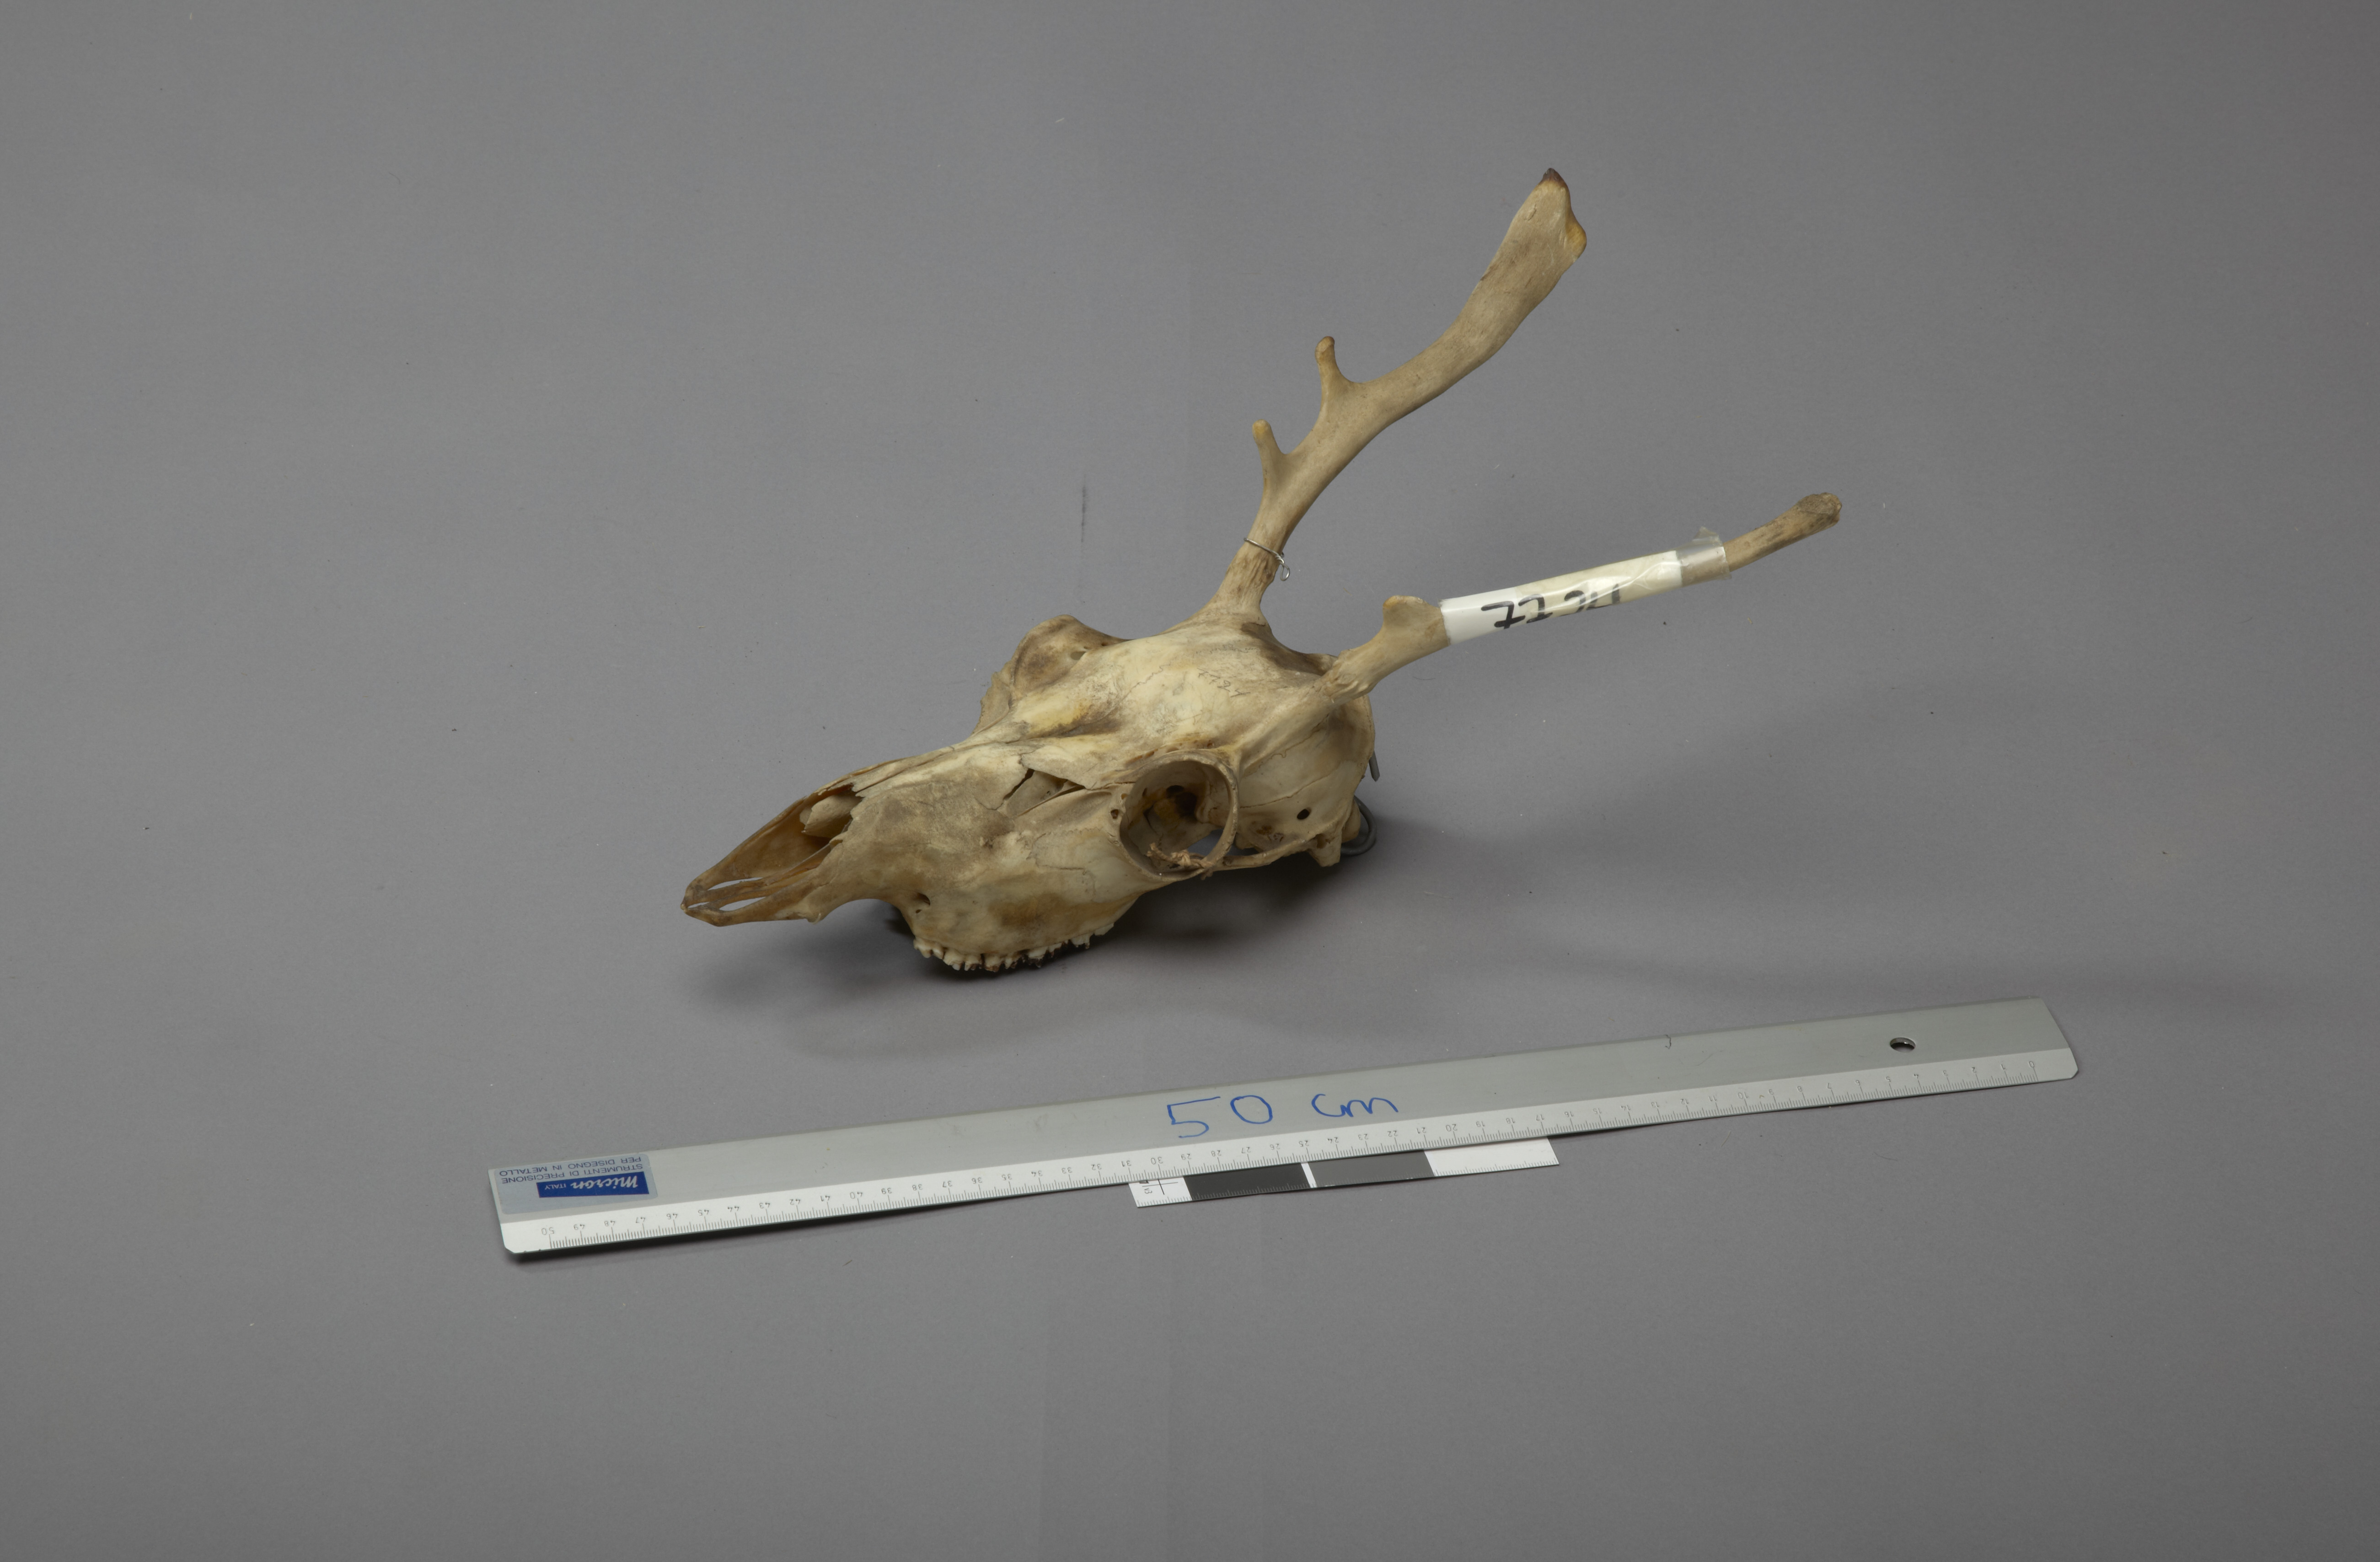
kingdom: Animalia
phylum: Chordata
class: Mammalia
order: Artiodactyla
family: Cervidae
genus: Rangifer
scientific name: Rangifer tarandus
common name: Reindeer
